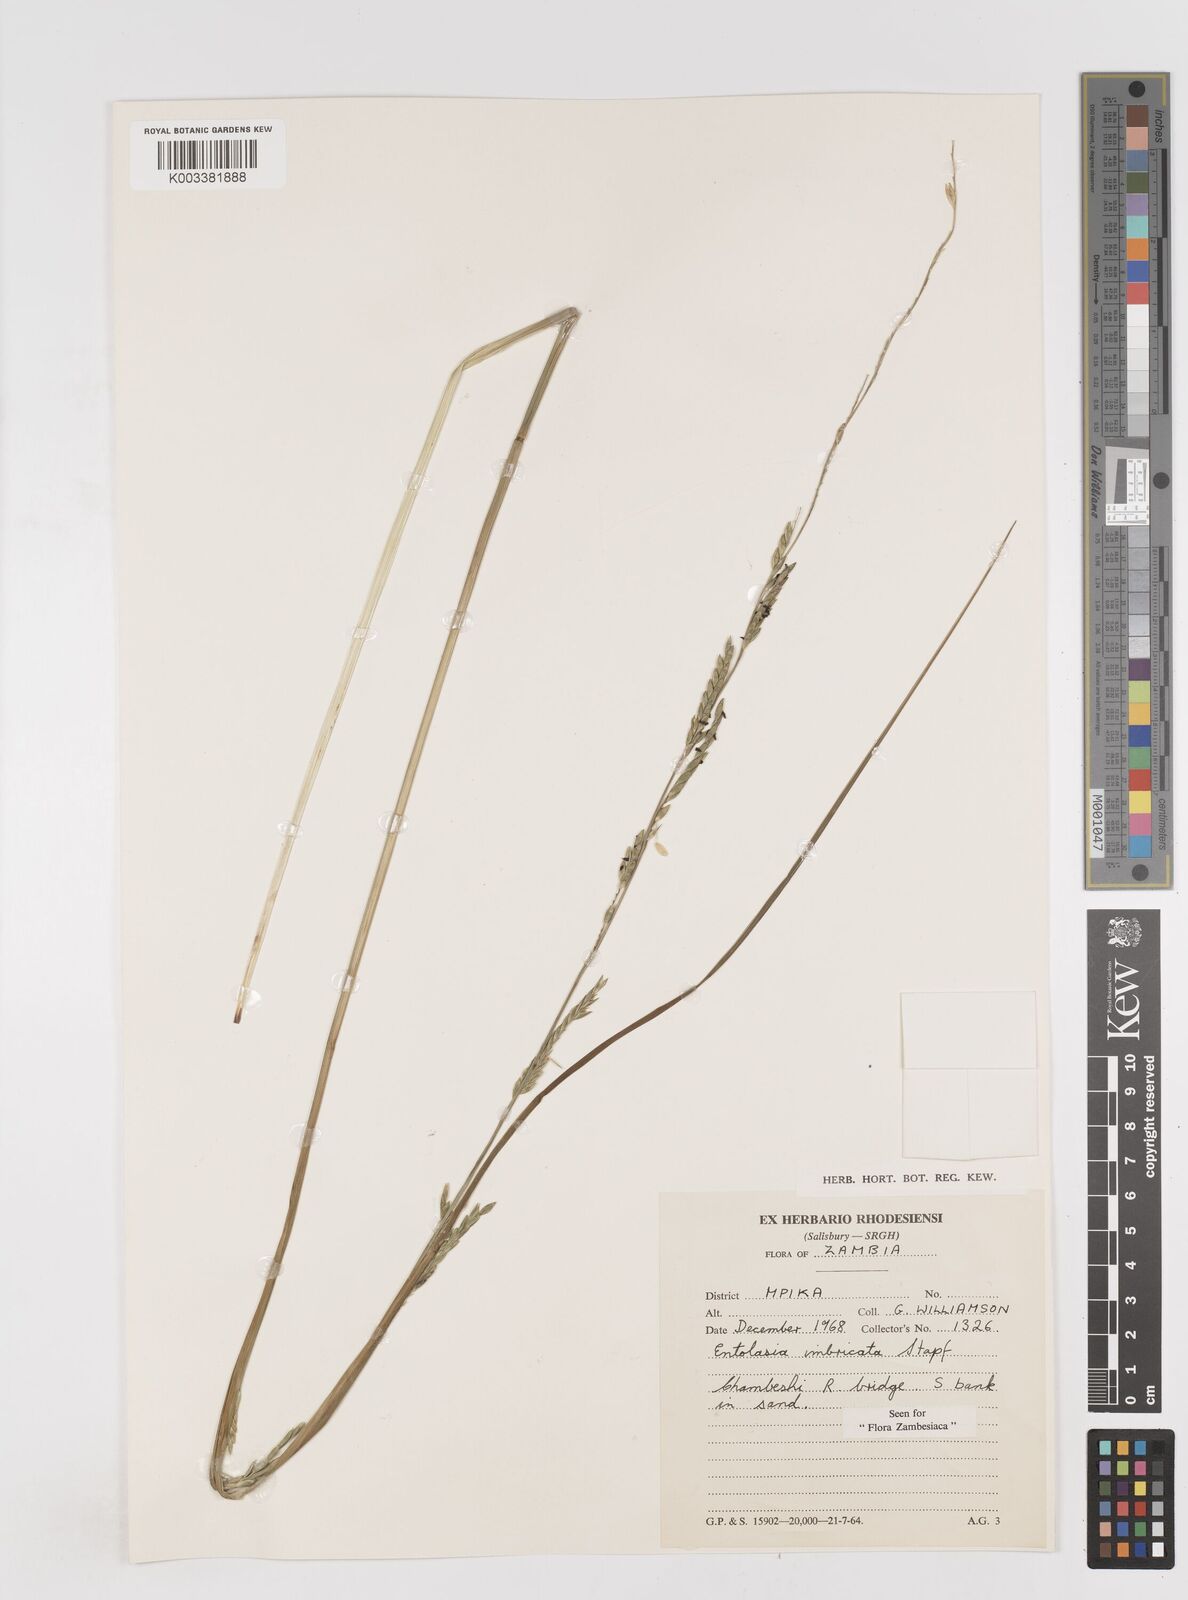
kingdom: Plantae
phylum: Tracheophyta
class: Liliopsida
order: Poales
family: Poaceae
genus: Entolasia
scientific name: Entolasia imbricata
